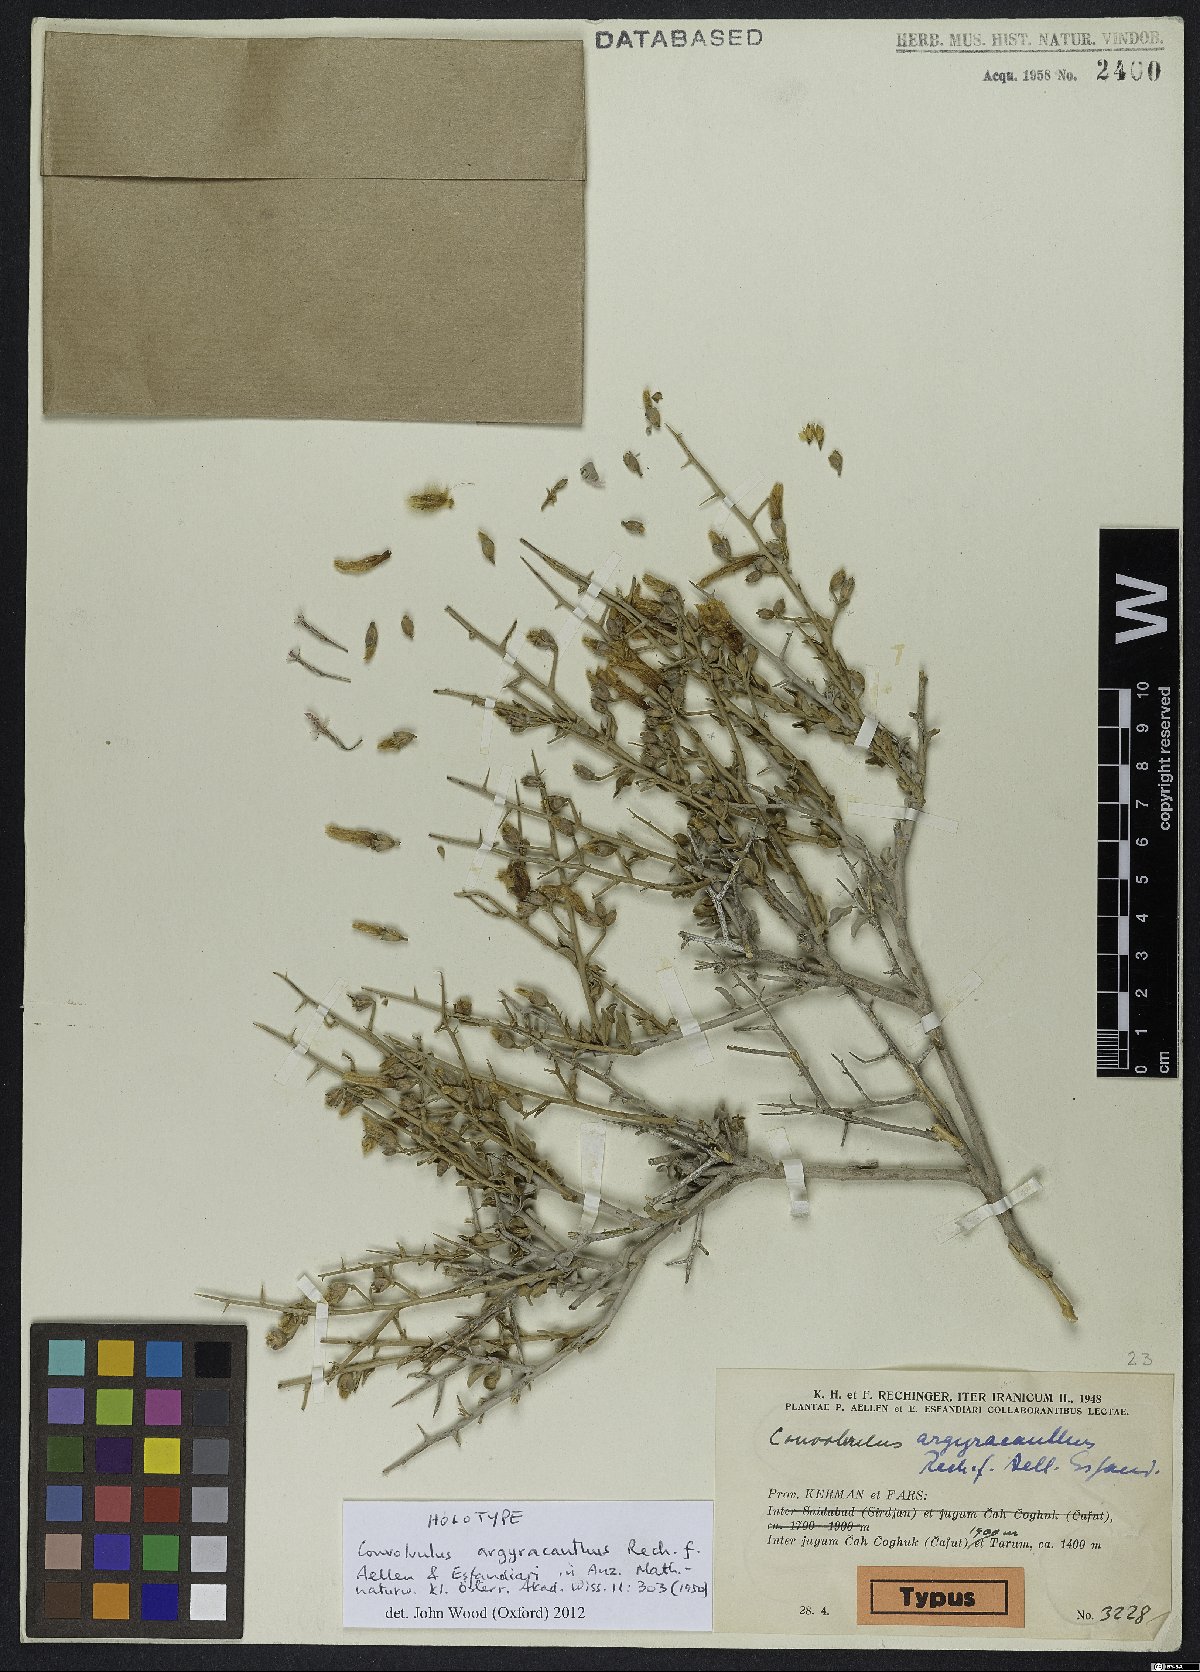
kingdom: Plantae
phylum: Tracheophyta
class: Magnoliopsida
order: Solanales
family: Convolvulaceae
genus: Convolvulus
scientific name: Convolvulus argyracanthus
